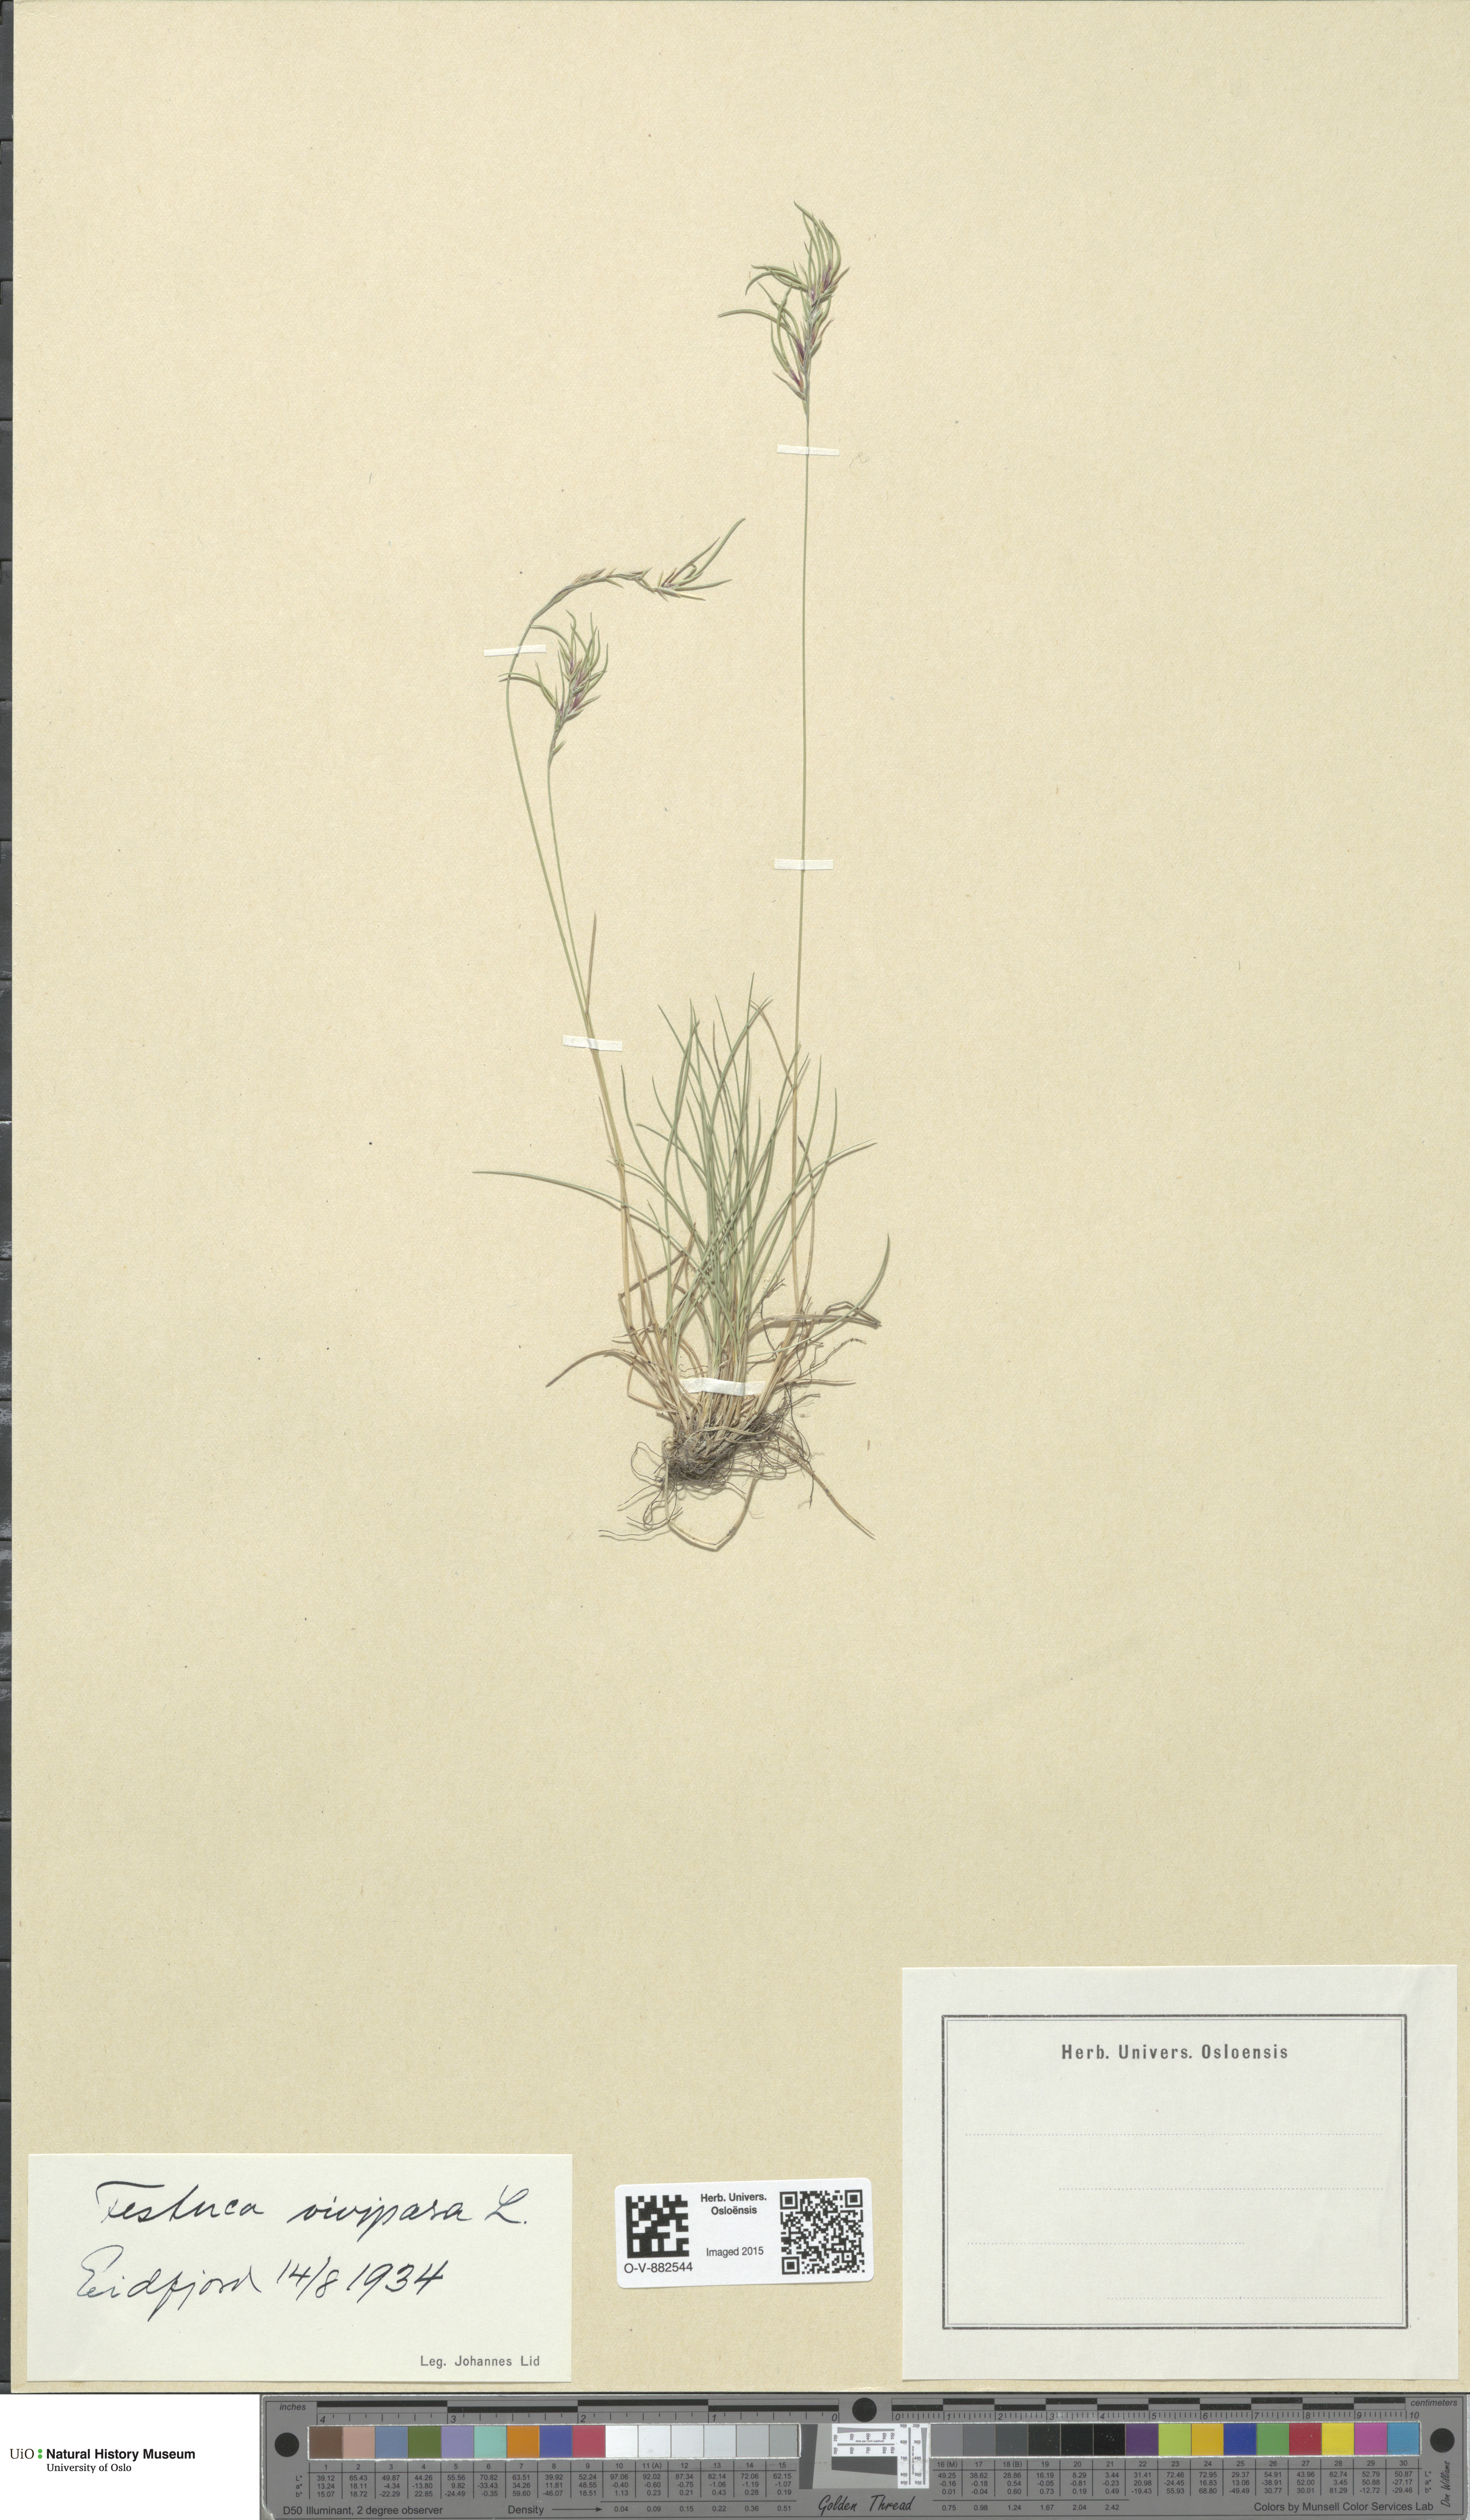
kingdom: Plantae
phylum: Tracheophyta
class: Liliopsida
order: Poales
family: Poaceae
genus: Festuca
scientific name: Festuca vivipara
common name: Viviparous sheep's-fescue
